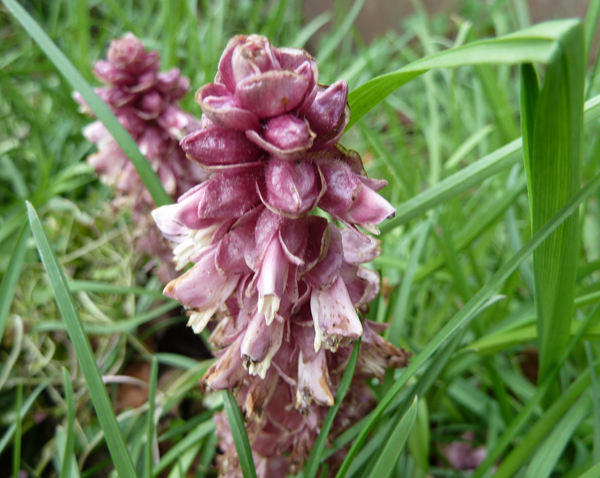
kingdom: Plantae
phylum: Tracheophyta
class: Magnoliopsida
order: Lamiales
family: Orobanchaceae
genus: Lathraea
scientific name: Lathraea squamaria
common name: Toothwort
